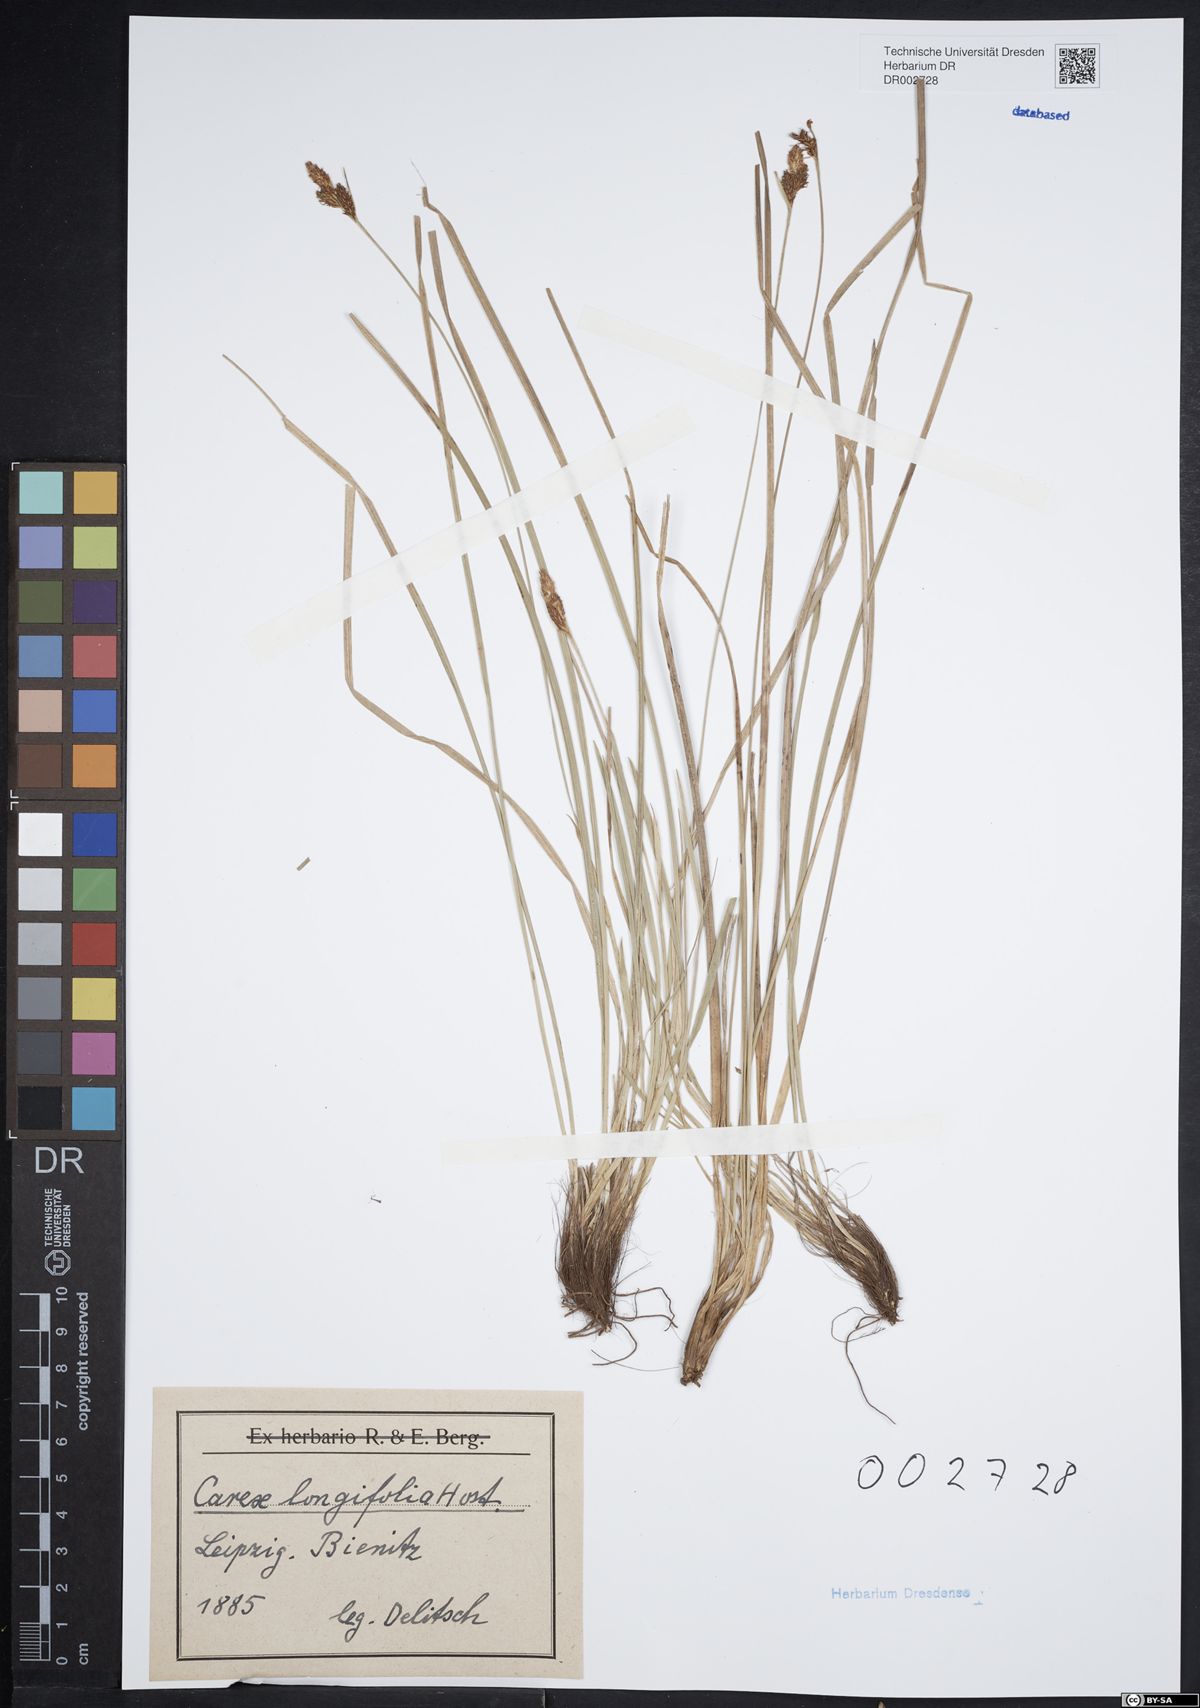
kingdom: Plantae
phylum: Tracheophyta
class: Liliopsida
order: Poales
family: Cyperaceae
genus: Carex
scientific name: Carex umbrosa
